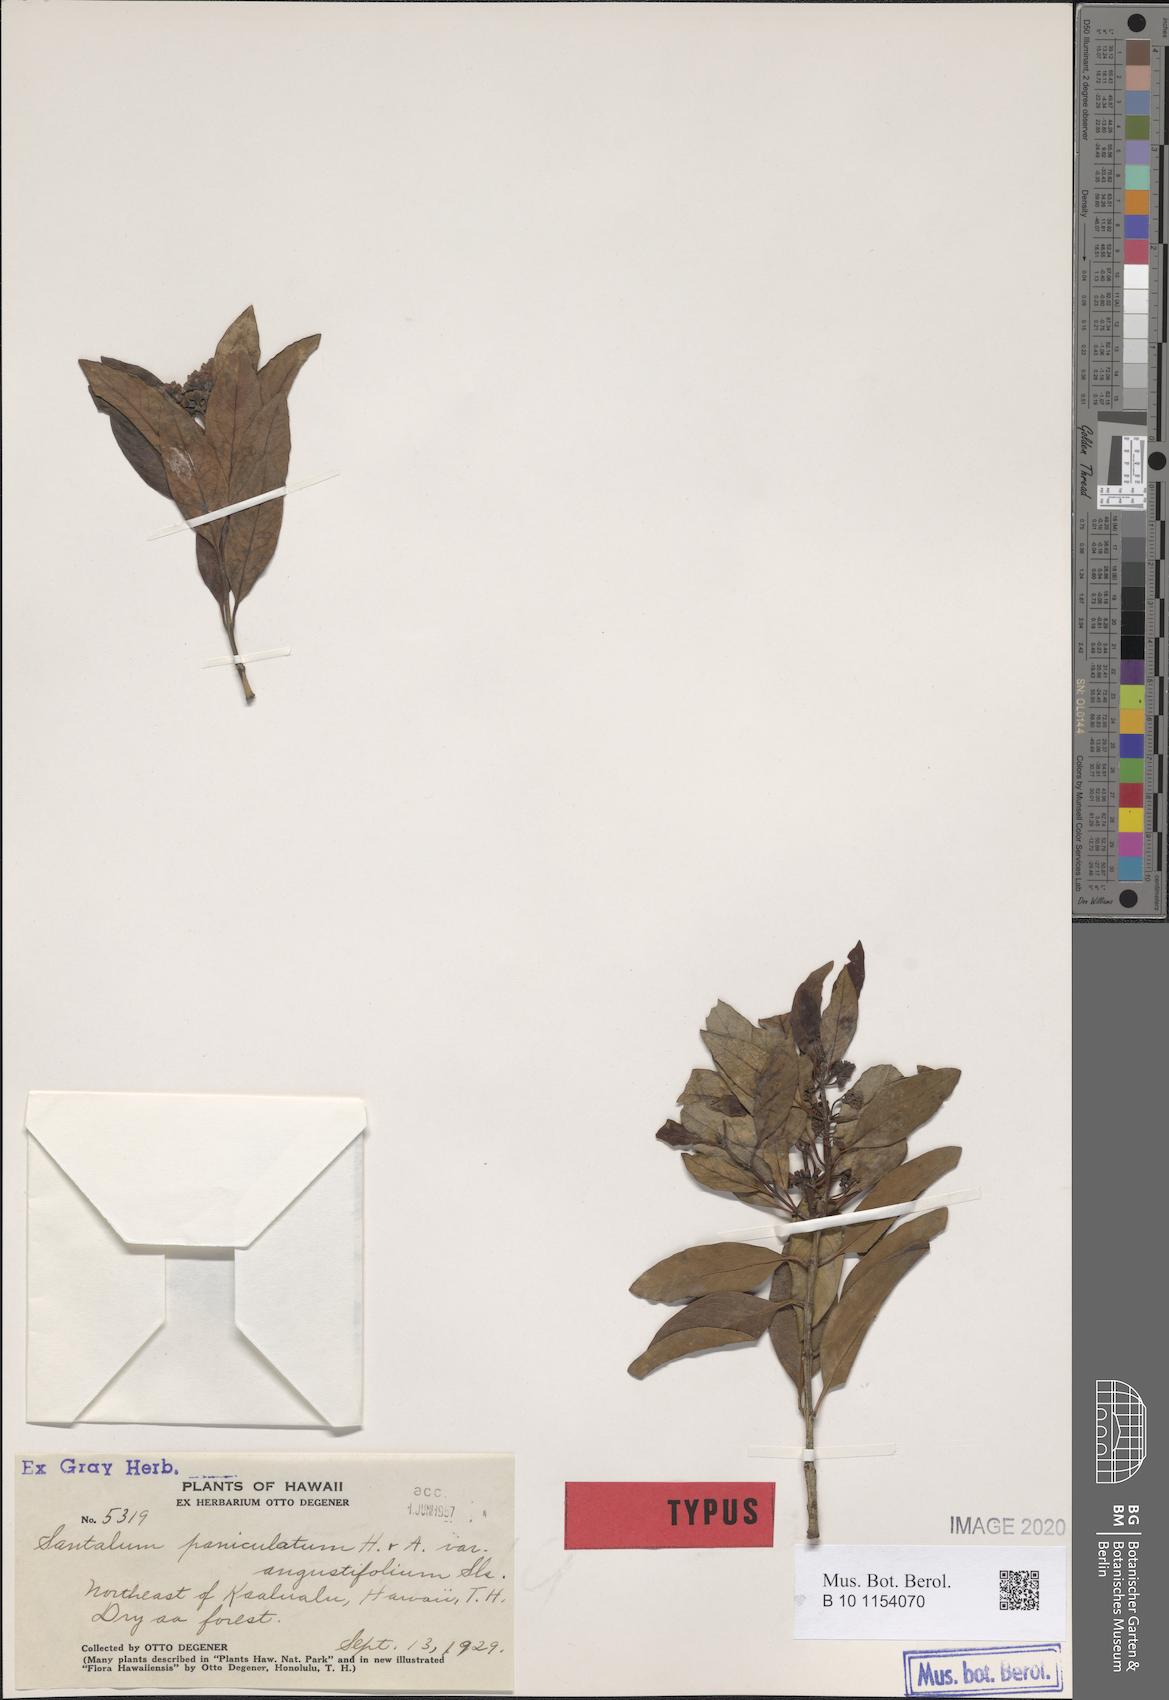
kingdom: Plantae
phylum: Tracheophyta
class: Magnoliopsida
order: Santalales
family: Santalaceae
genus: Santalum
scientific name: Santalum paniculatum
